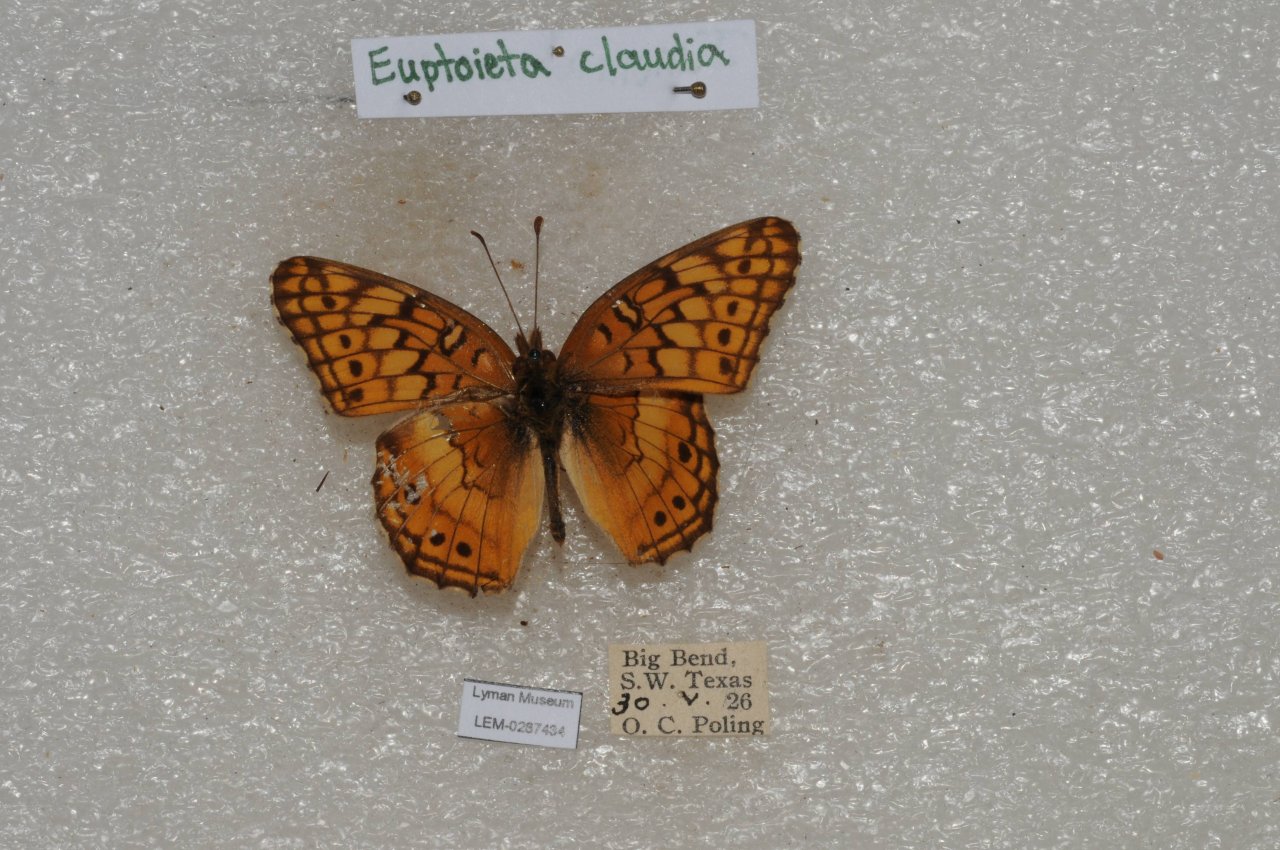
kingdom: Animalia
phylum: Arthropoda
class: Insecta
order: Lepidoptera
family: Nymphalidae
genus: Euptoieta
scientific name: Euptoieta claudia
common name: Variegated Fritillary
